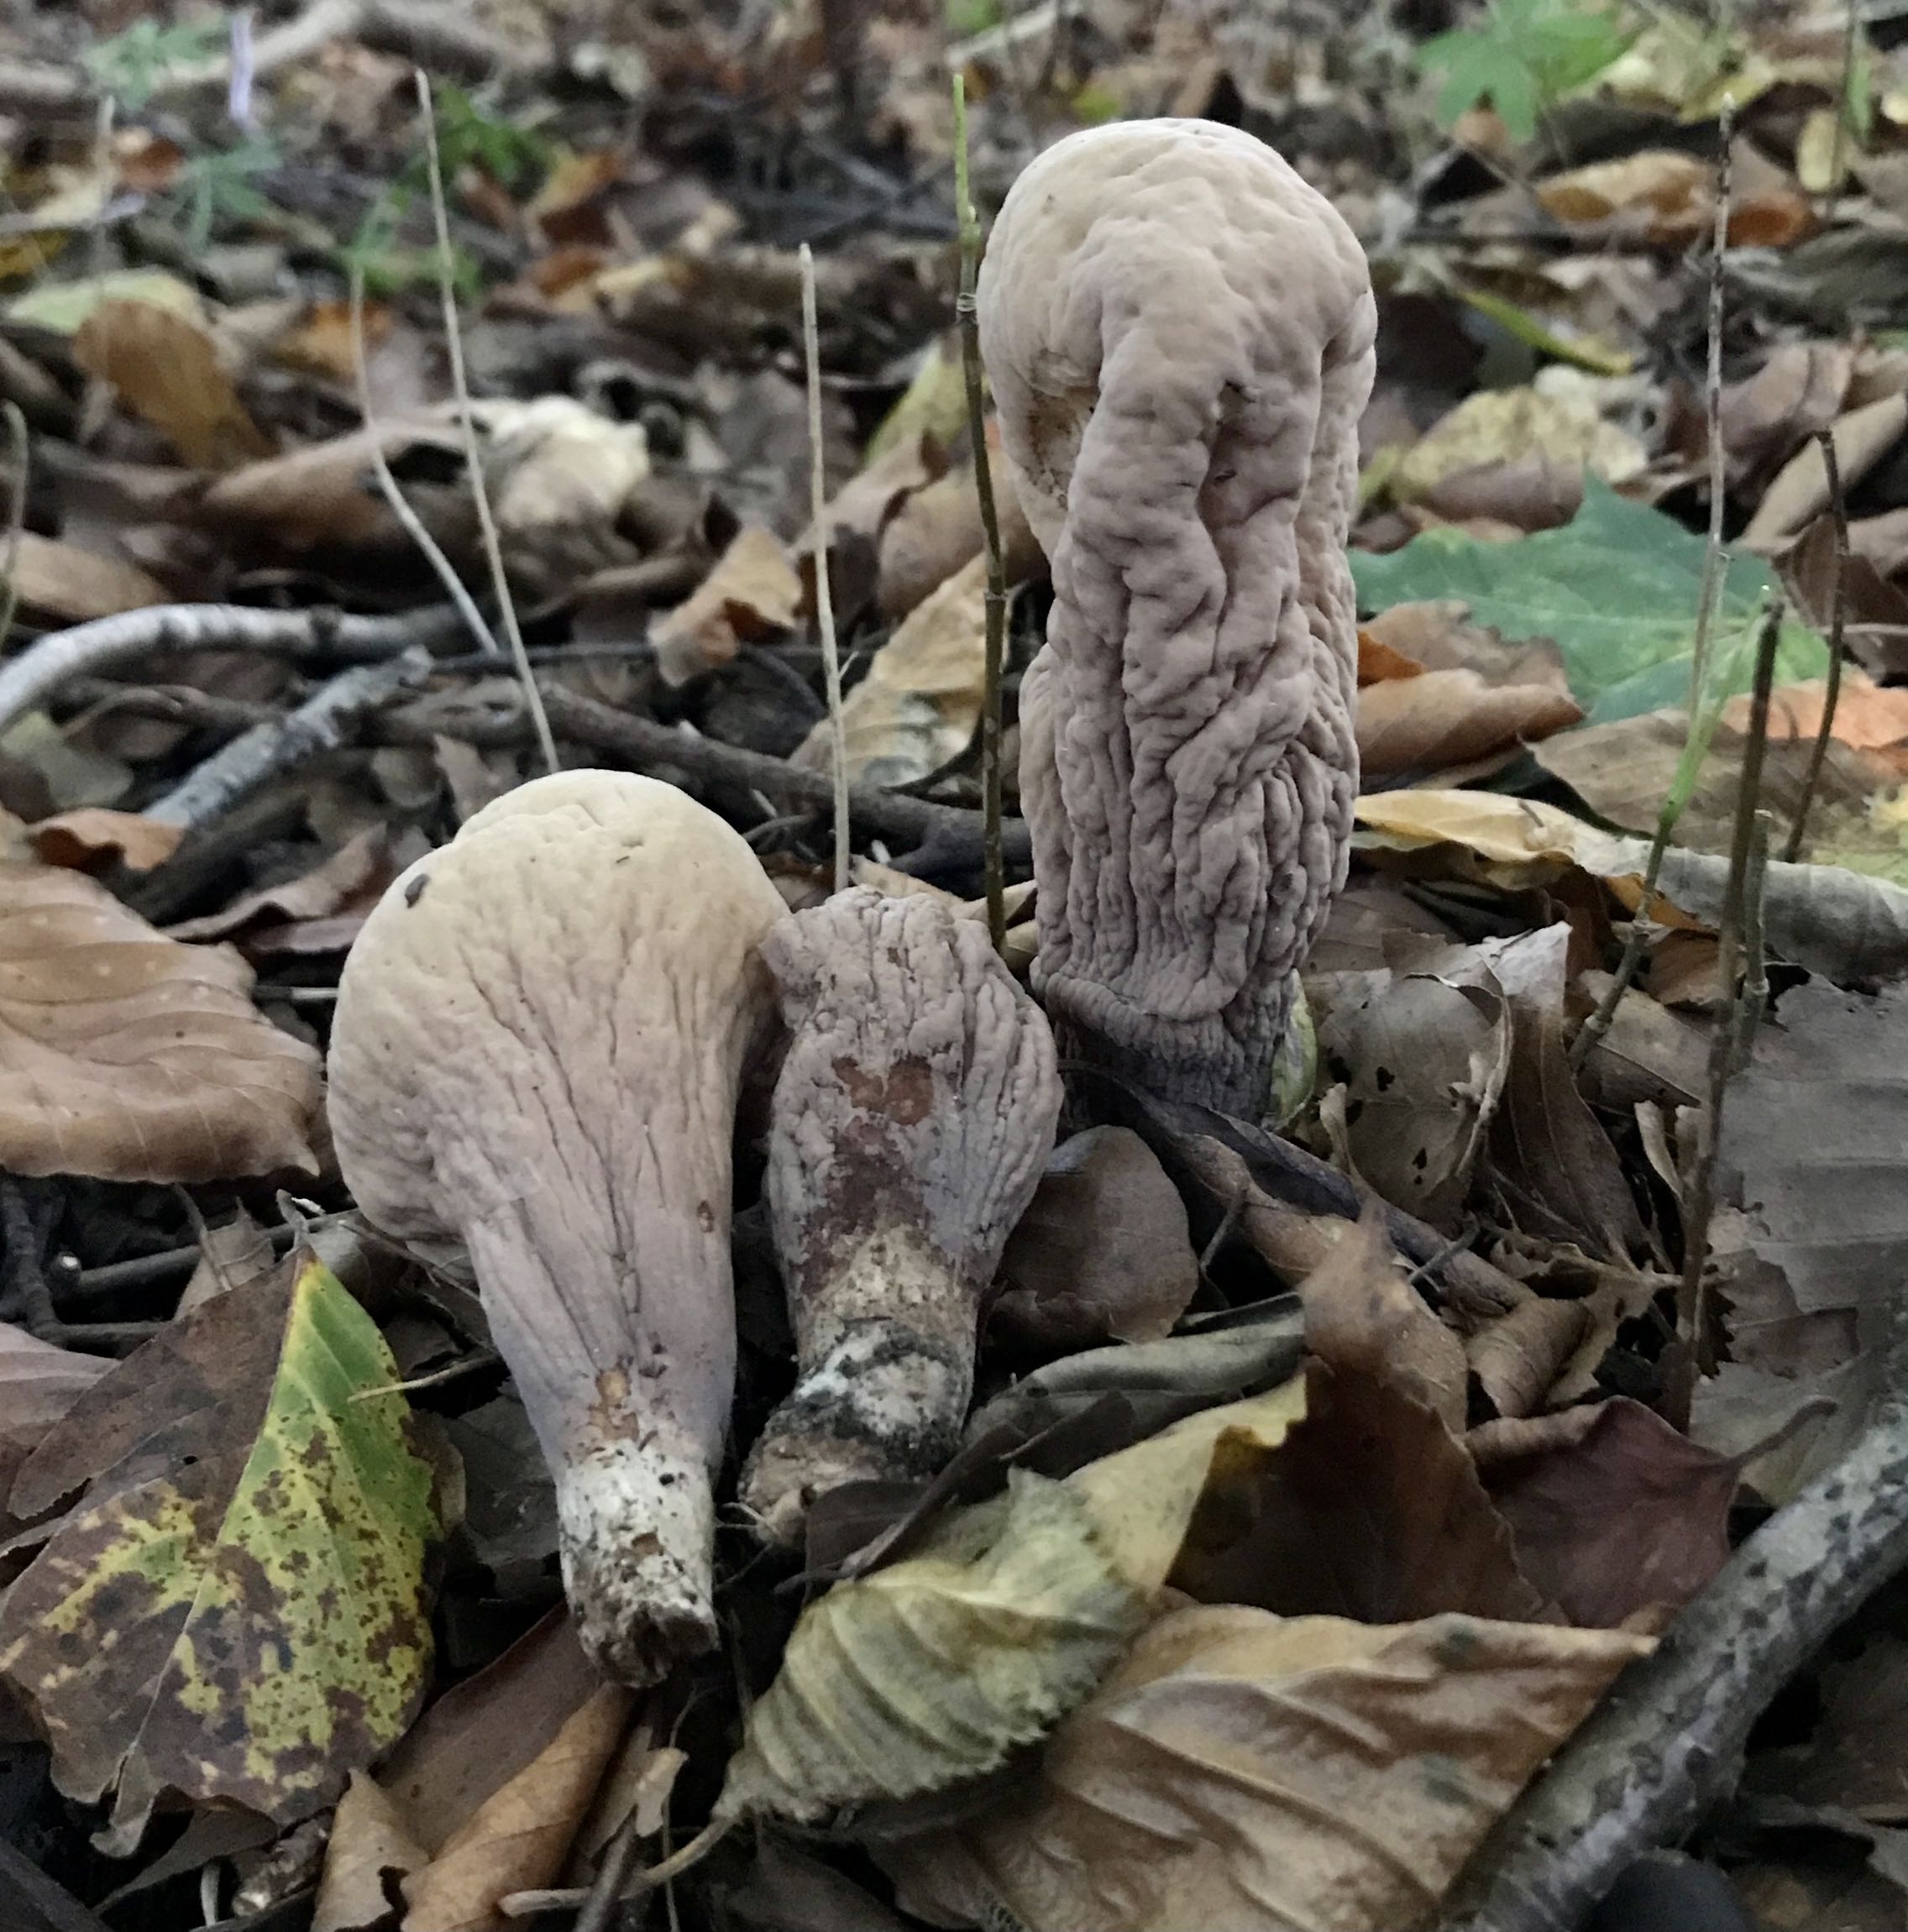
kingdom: Fungi
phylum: Basidiomycota
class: Agaricomycetes
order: Gomphales
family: Clavariadelphaceae
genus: Clavariadelphus
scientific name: Clavariadelphus pistillaris
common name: herkules-kæmpekølle
